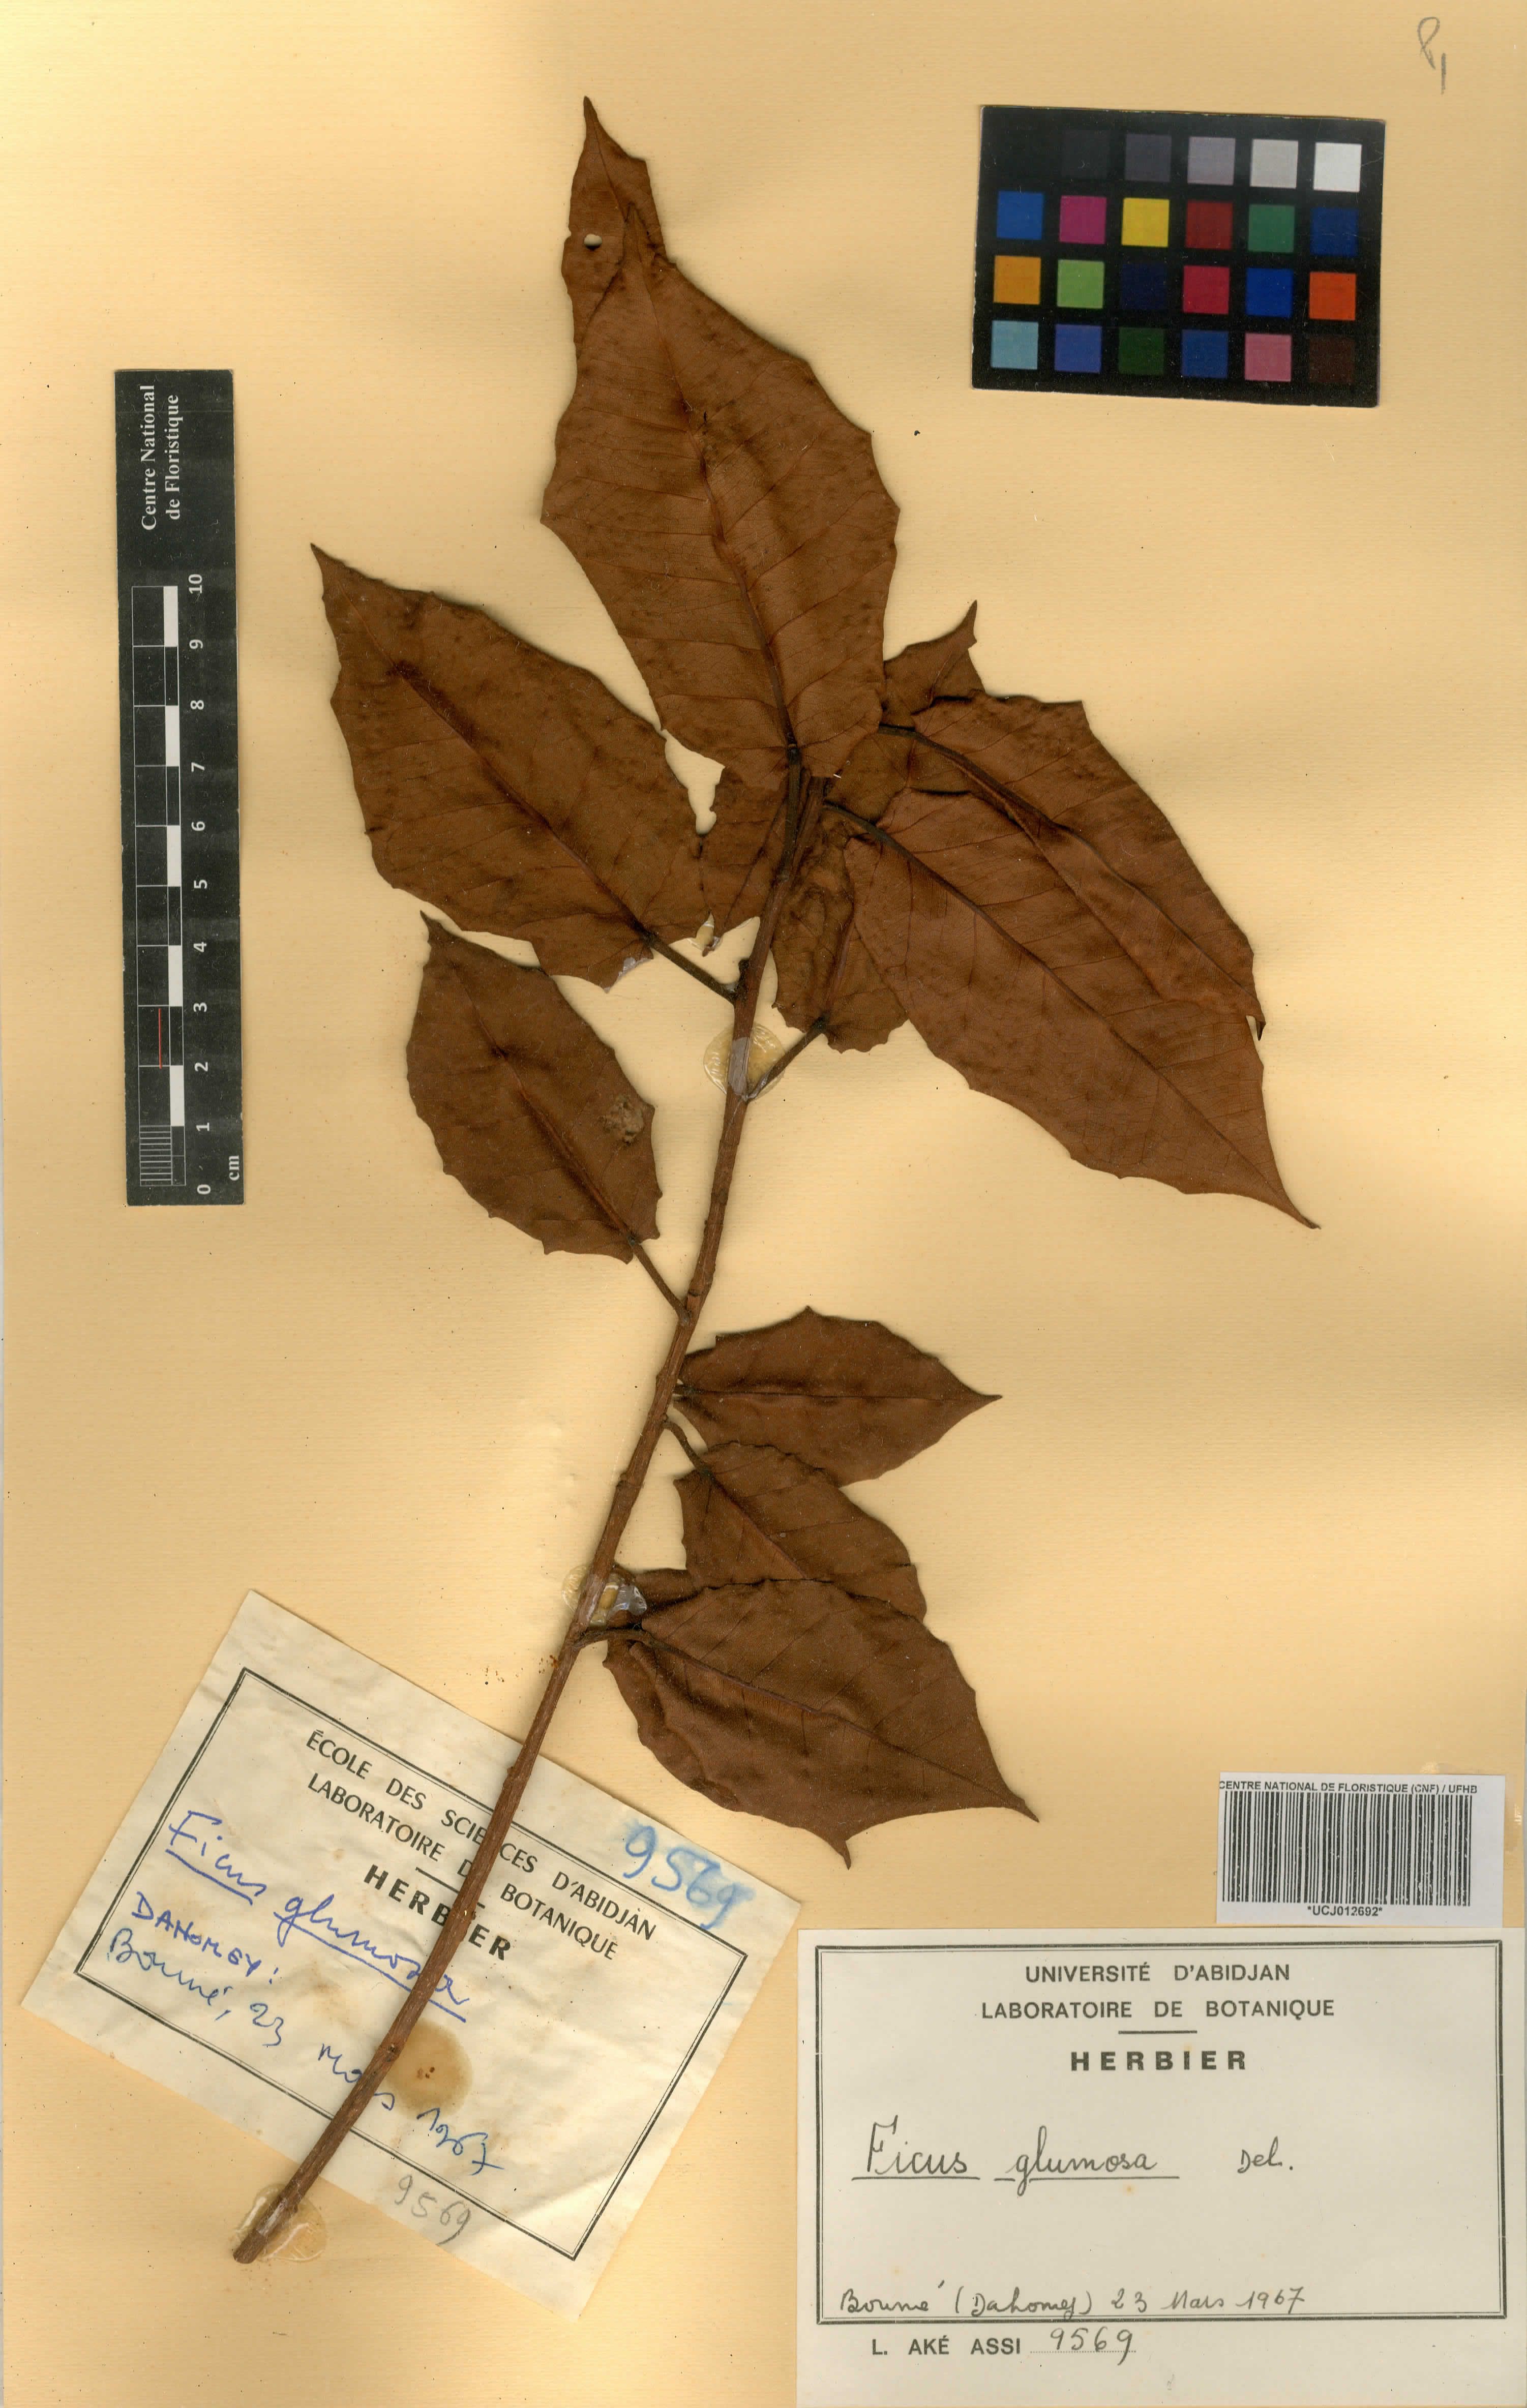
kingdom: Plantae
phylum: Tracheophyta
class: Magnoliopsida
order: Rosales
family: Moraceae
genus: Ficus
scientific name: Ficus glumosa
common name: Hairy rock fig
